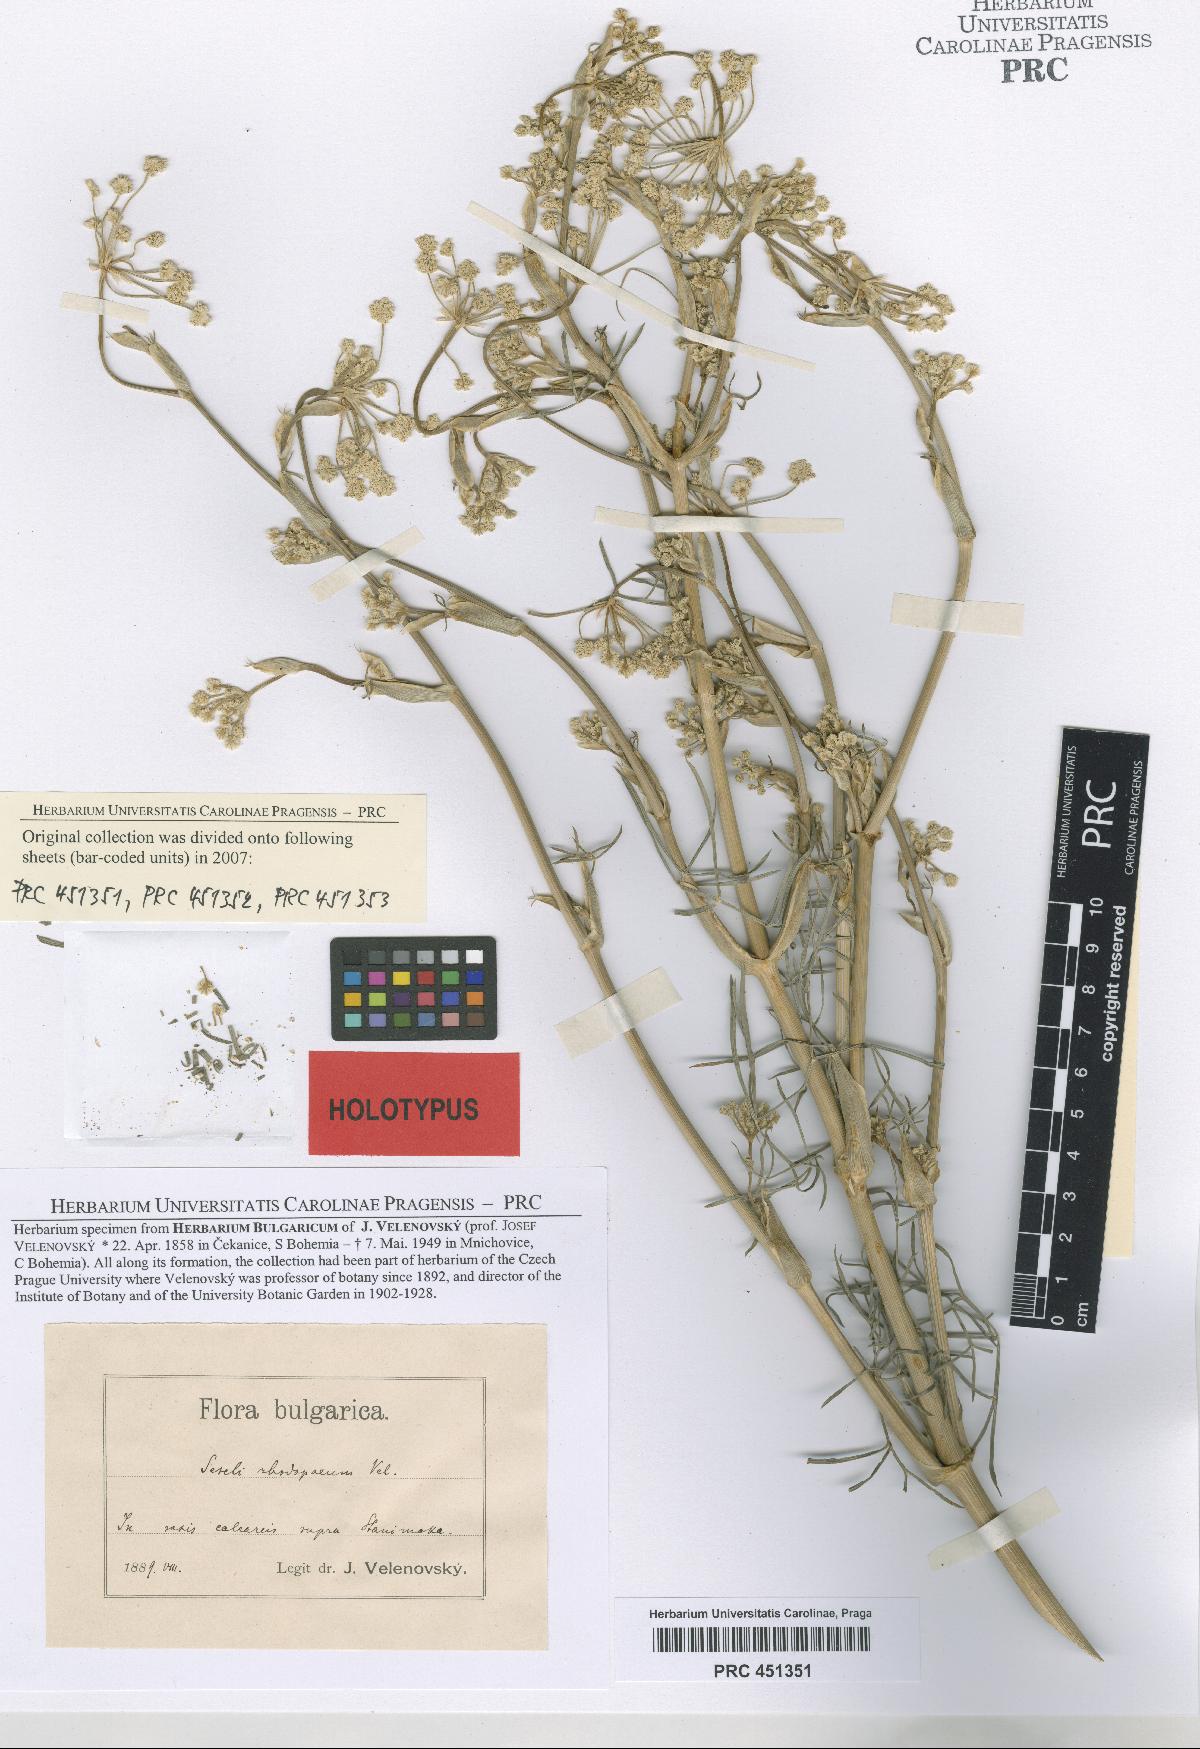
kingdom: Plantae
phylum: Tracheophyta
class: Magnoliopsida
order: Apiales
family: Apiaceae
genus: Seseli
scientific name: Seseli rhodopeum
